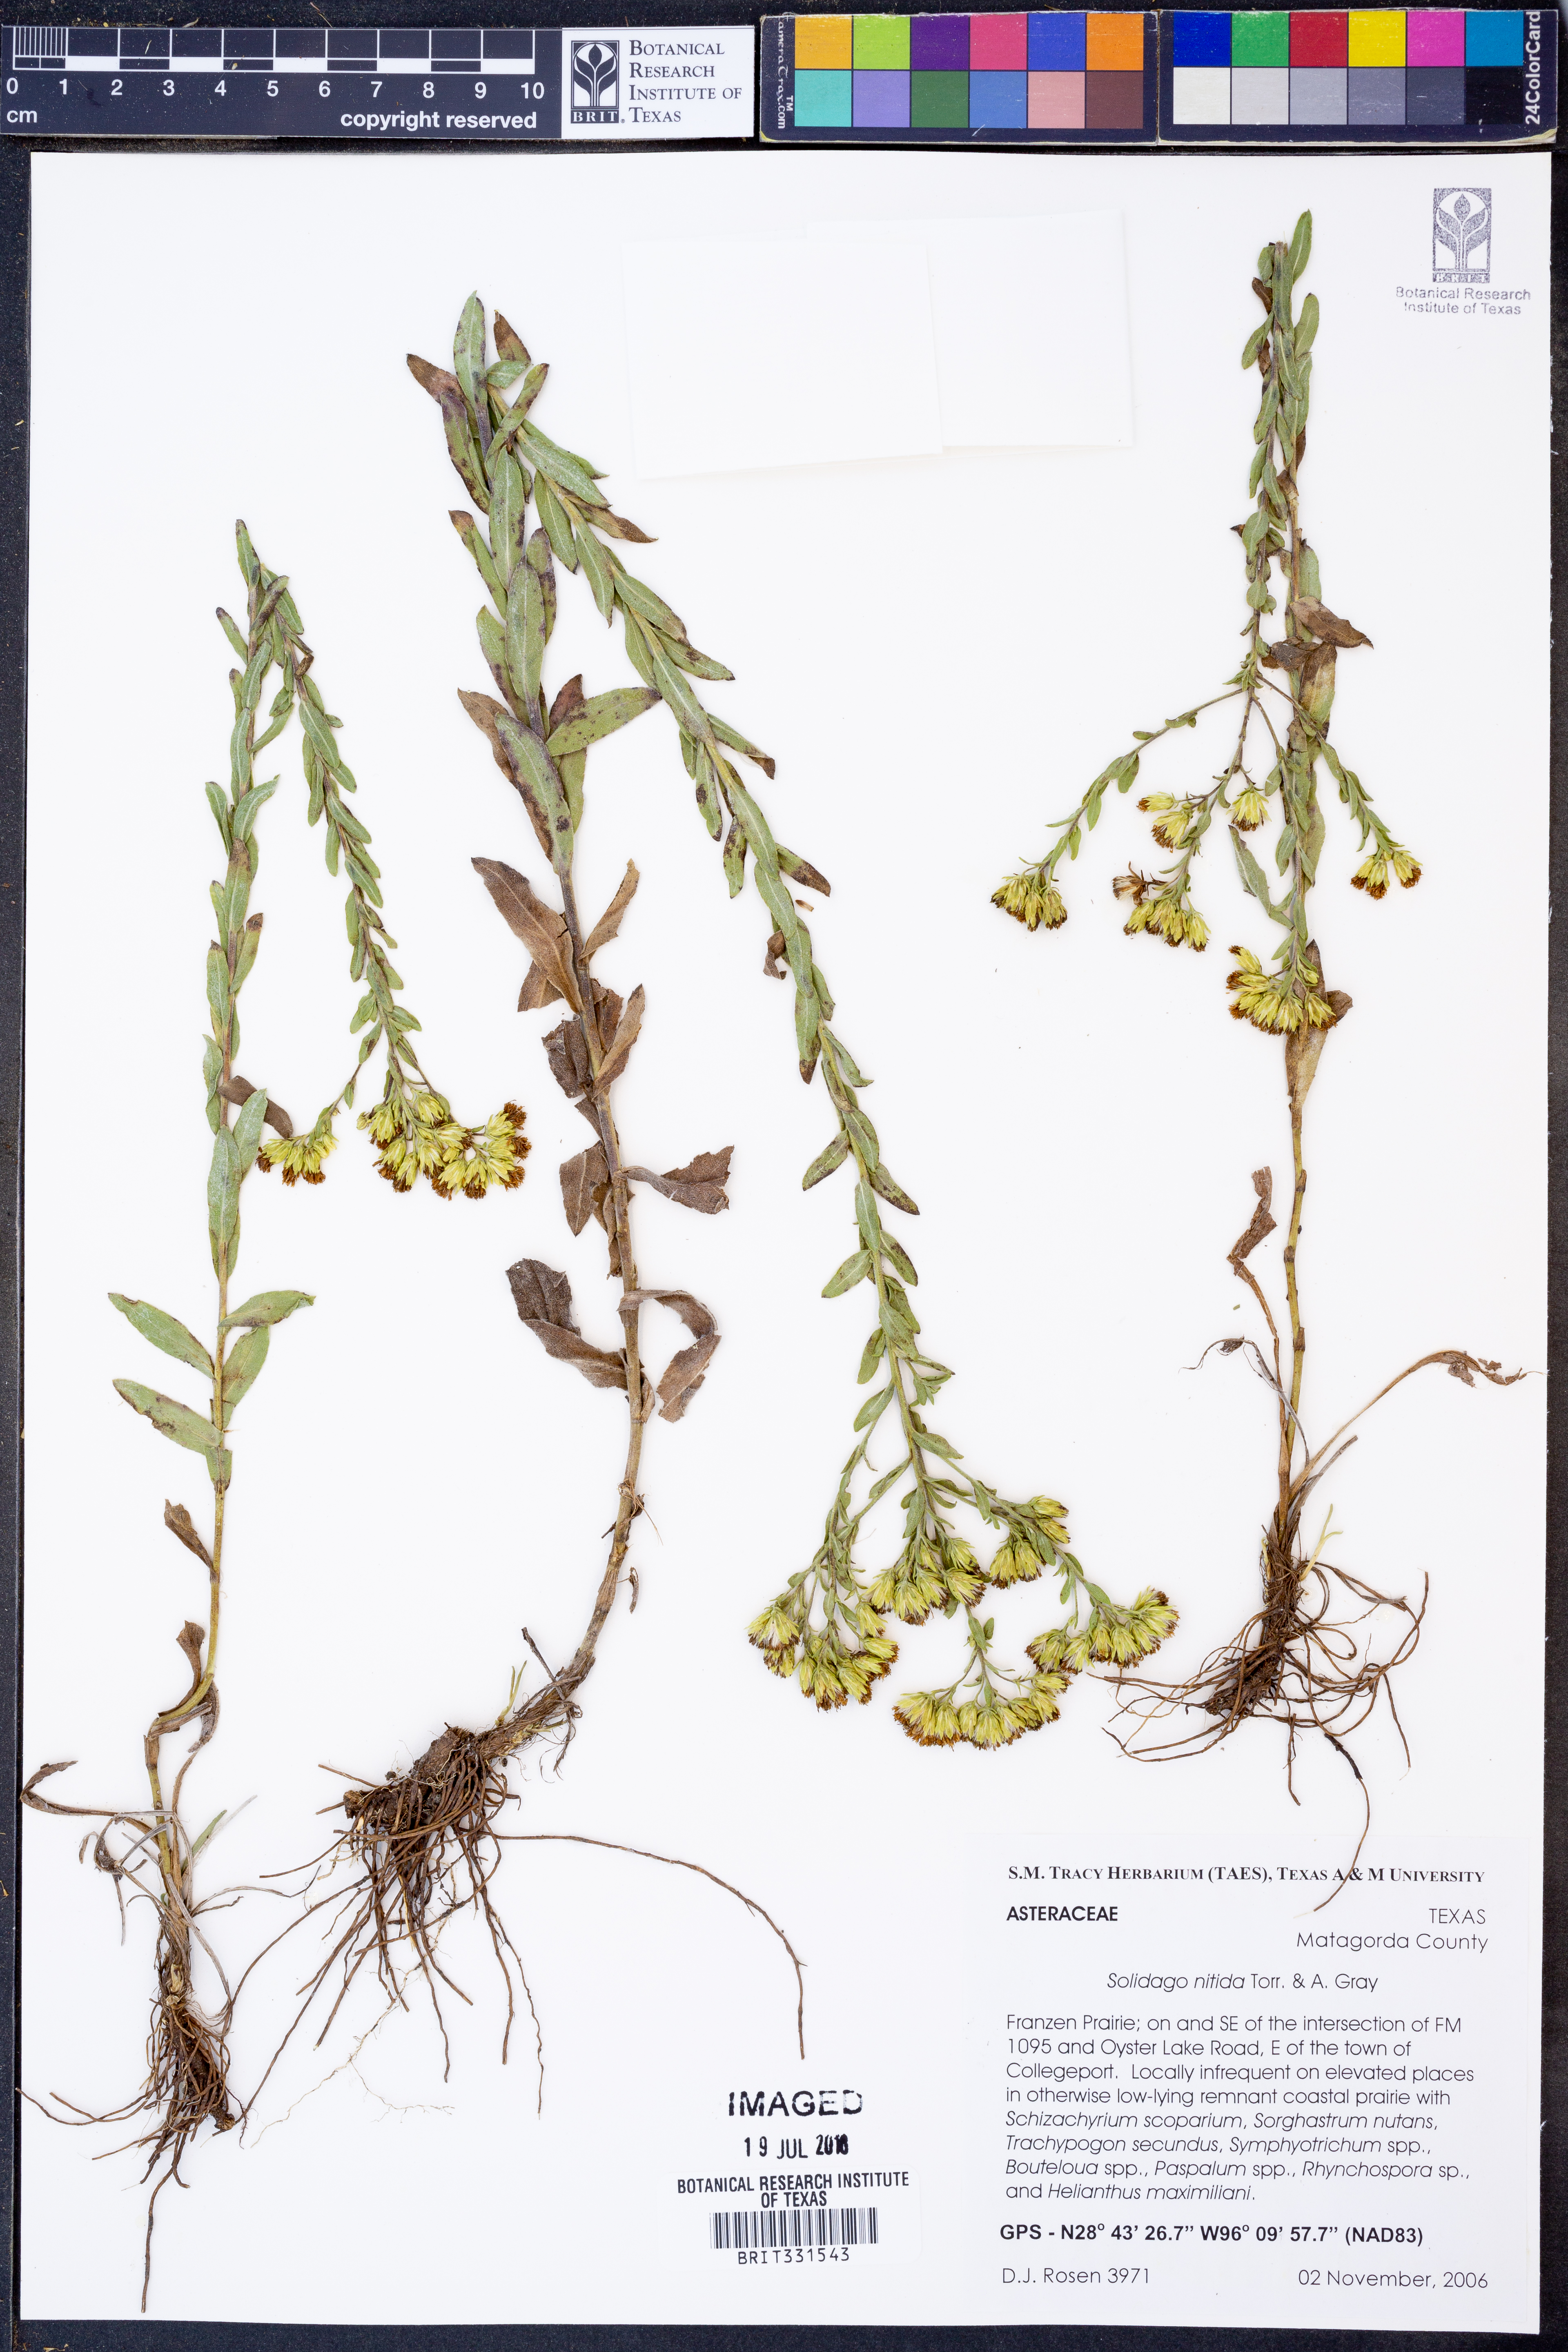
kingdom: Plantae
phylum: Tracheophyta
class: Magnoliopsida
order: Asterales
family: Asteraceae
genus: Solidago
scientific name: Solidago nitida
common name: Shiny goldenrod
